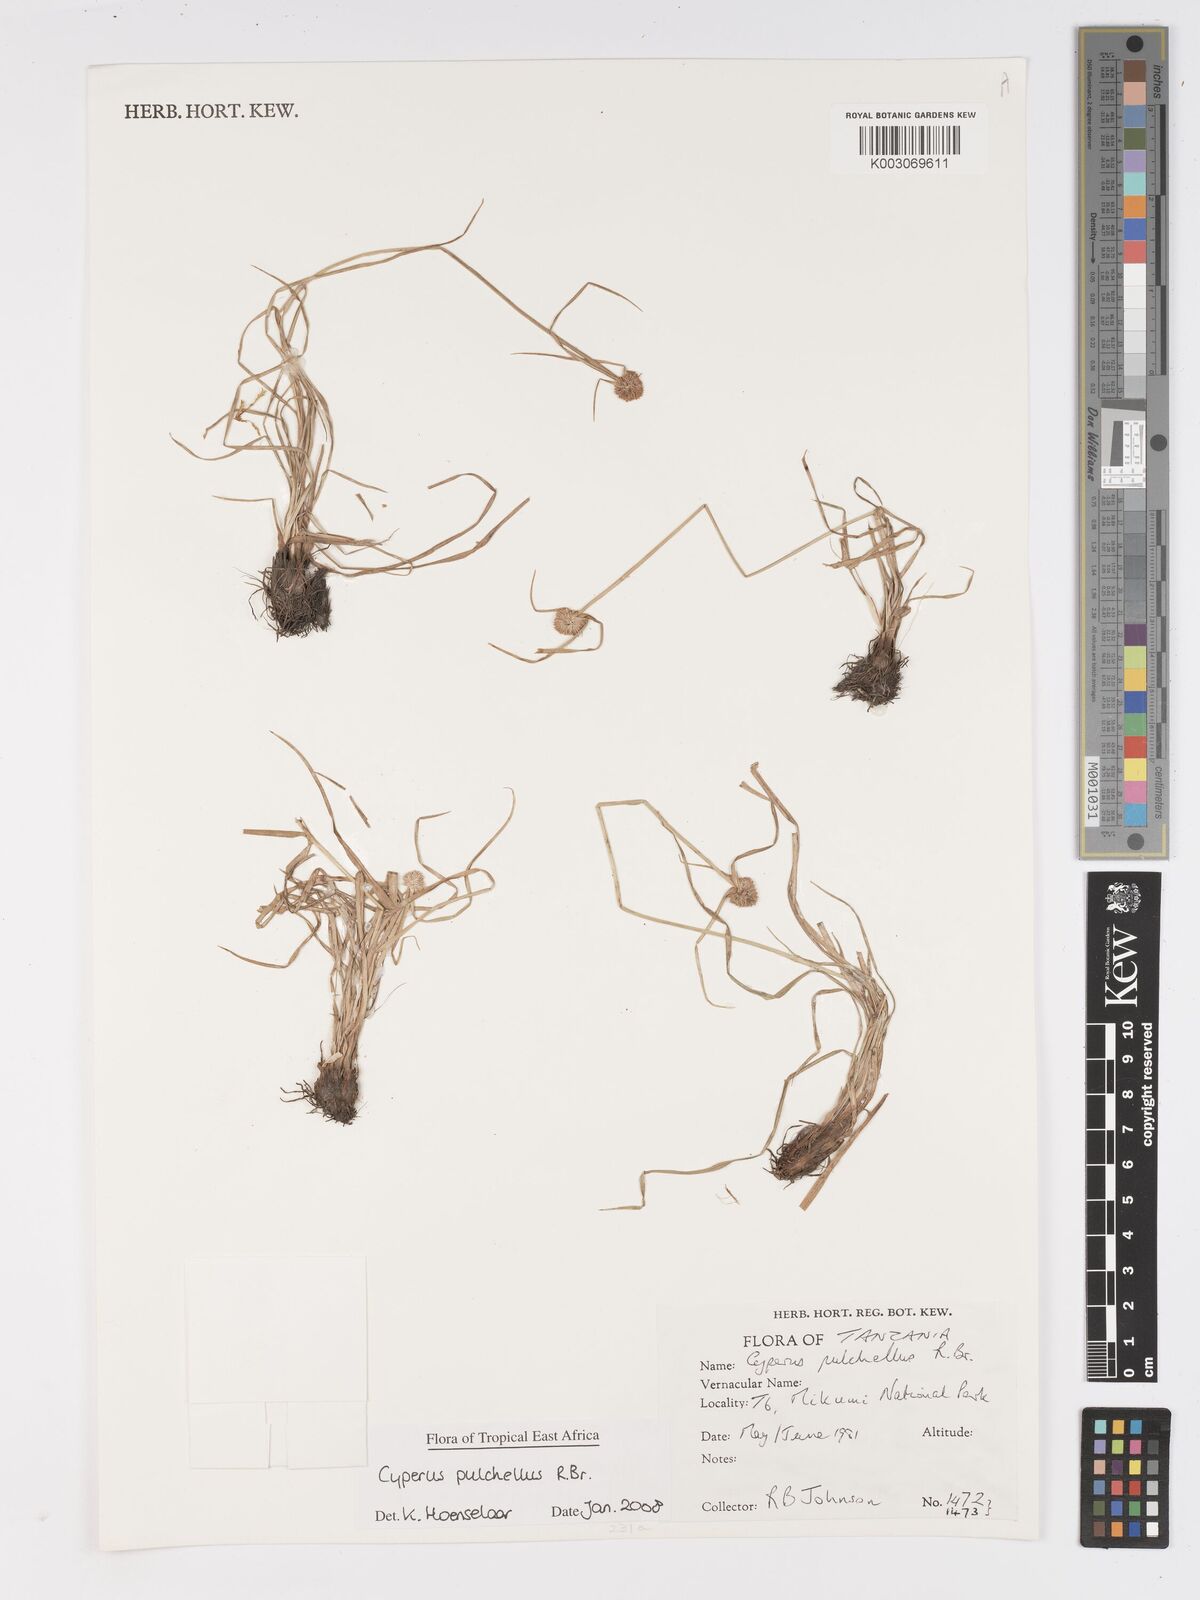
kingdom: Plantae
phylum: Tracheophyta
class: Liliopsida
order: Poales
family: Cyperaceae
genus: Cyperus
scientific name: Cyperus pulchellus
